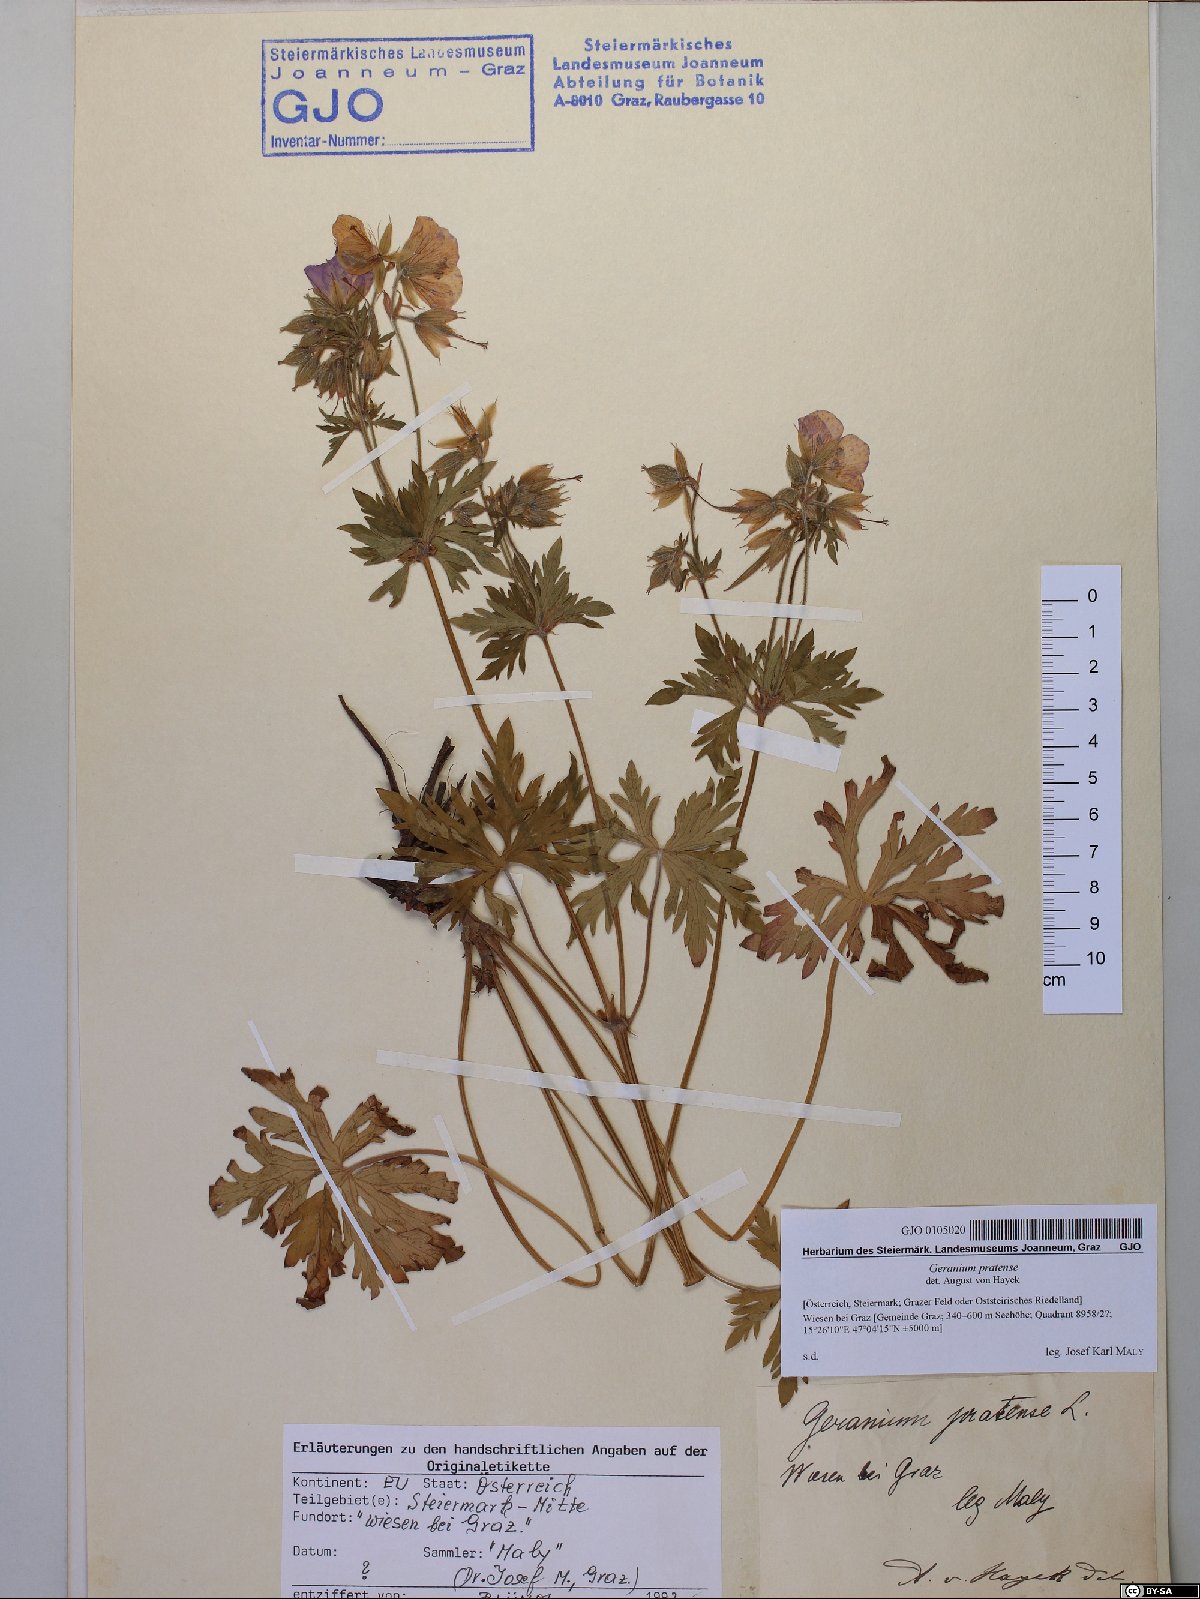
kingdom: Plantae
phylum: Tracheophyta
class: Magnoliopsida
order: Geraniales
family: Geraniaceae
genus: Geranium
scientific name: Geranium pratense
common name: Meadow crane's-bill
